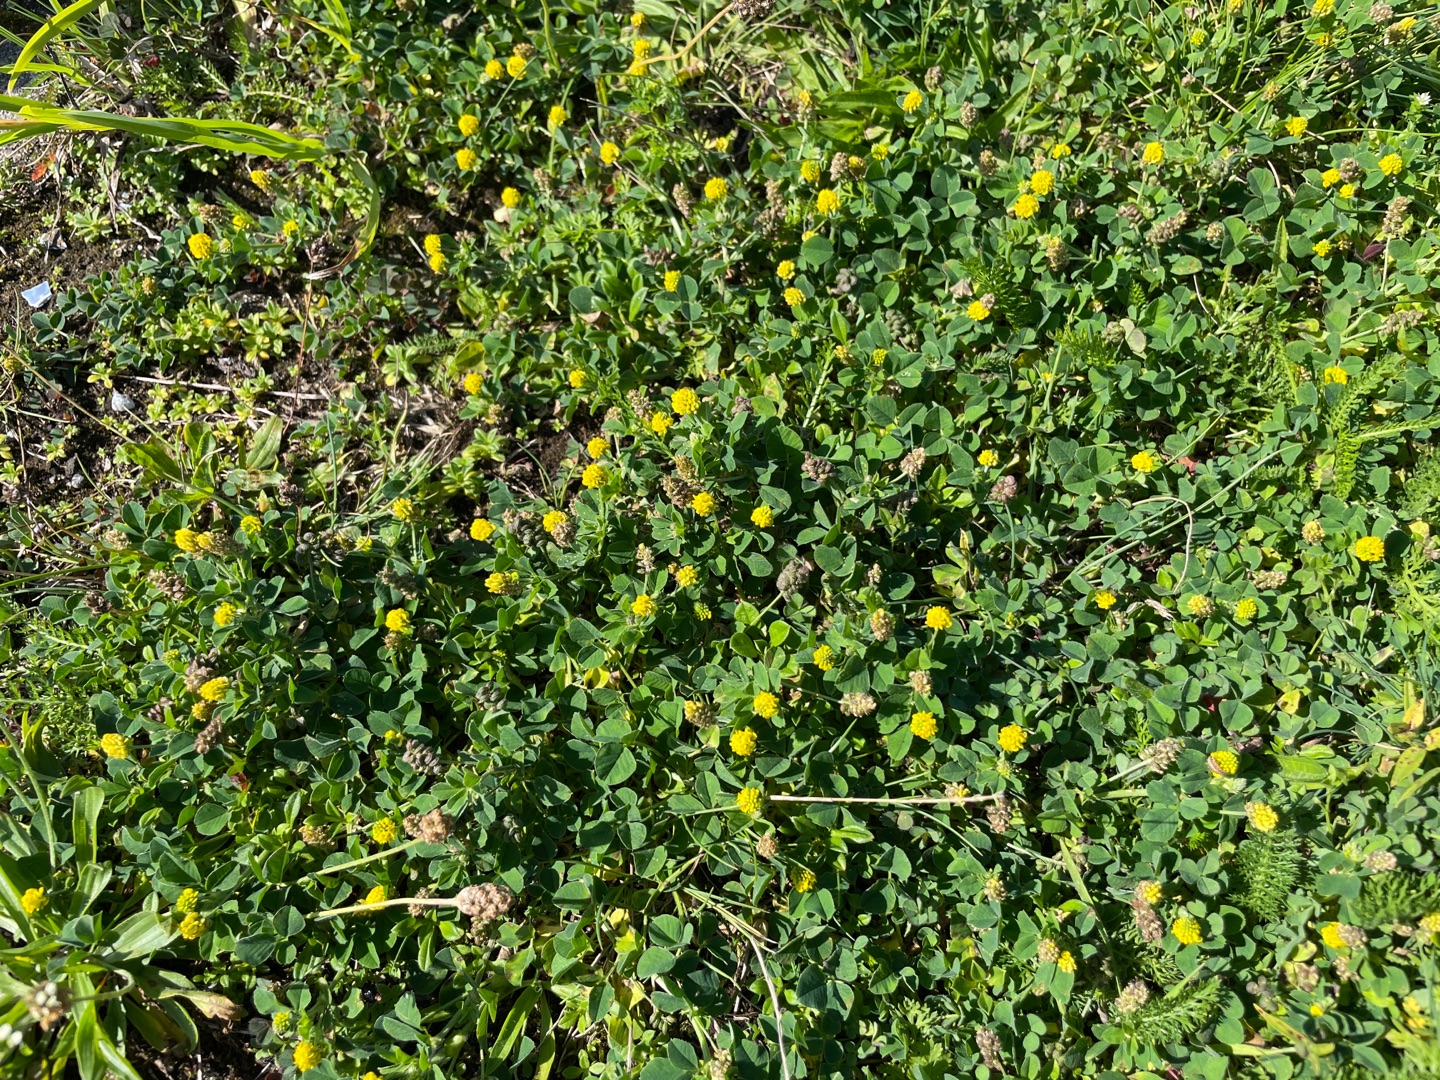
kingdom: Plantae
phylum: Tracheophyta
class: Magnoliopsida
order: Fabales
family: Fabaceae
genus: Medicago
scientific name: Medicago lupulina
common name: Humle-sneglebælg
